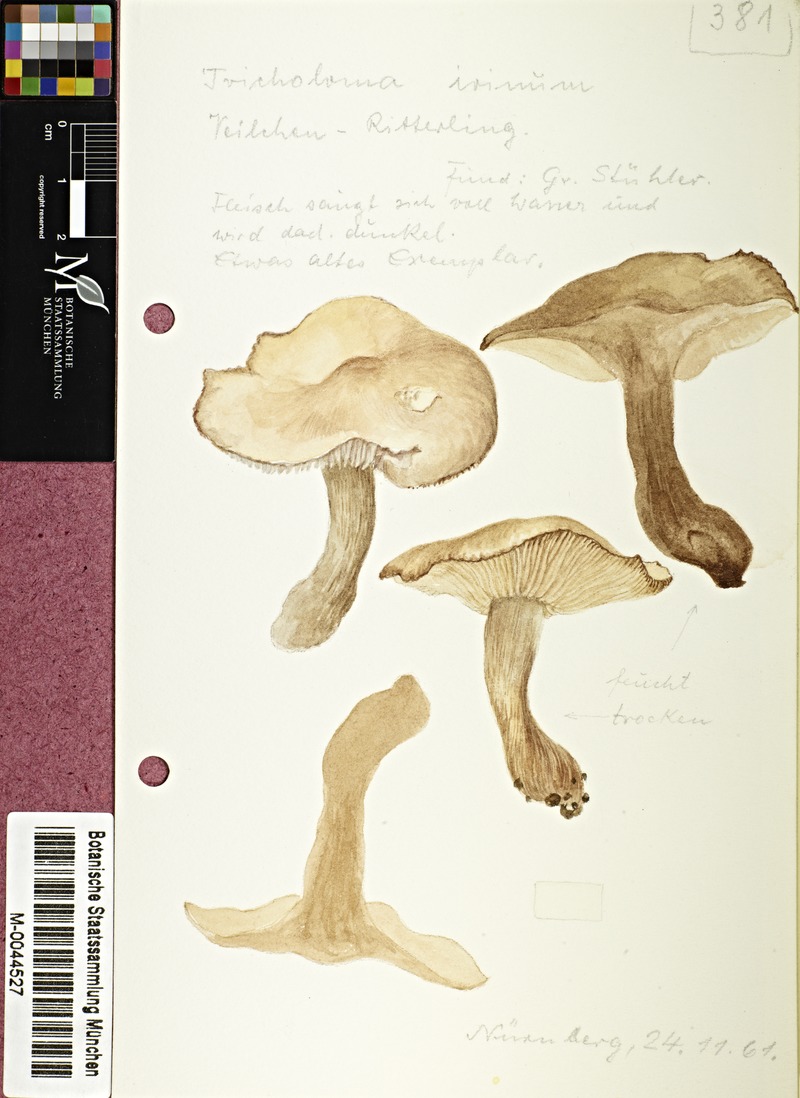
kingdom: Fungi
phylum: Basidiomycota
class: Agaricomycetes
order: Agaricales
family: Tricholomataceae
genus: Lepista
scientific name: Lepista irina
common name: Flowery blewit
